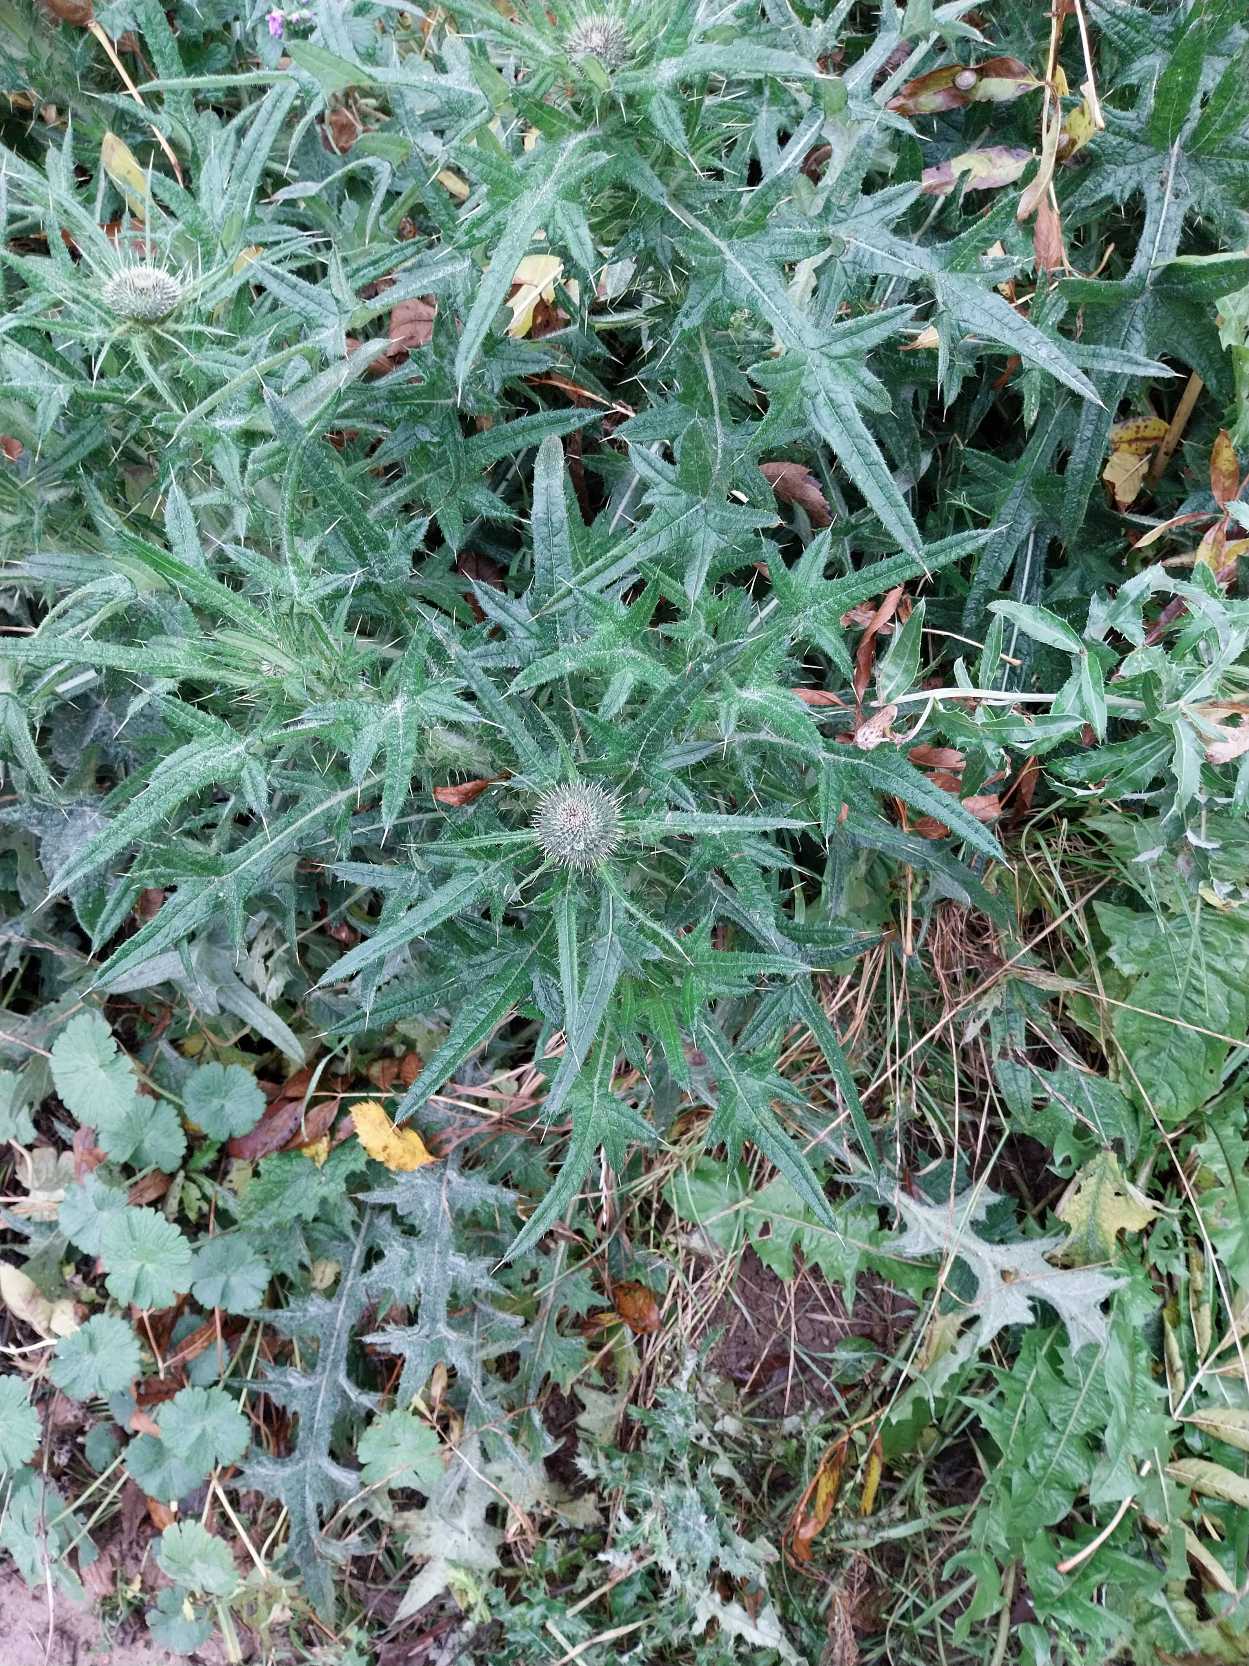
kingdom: Plantae
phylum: Tracheophyta
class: Magnoliopsida
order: Asterales
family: Asteraceae
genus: Cirsium
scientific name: Cirsium vulgare
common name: Horse-tidsel
